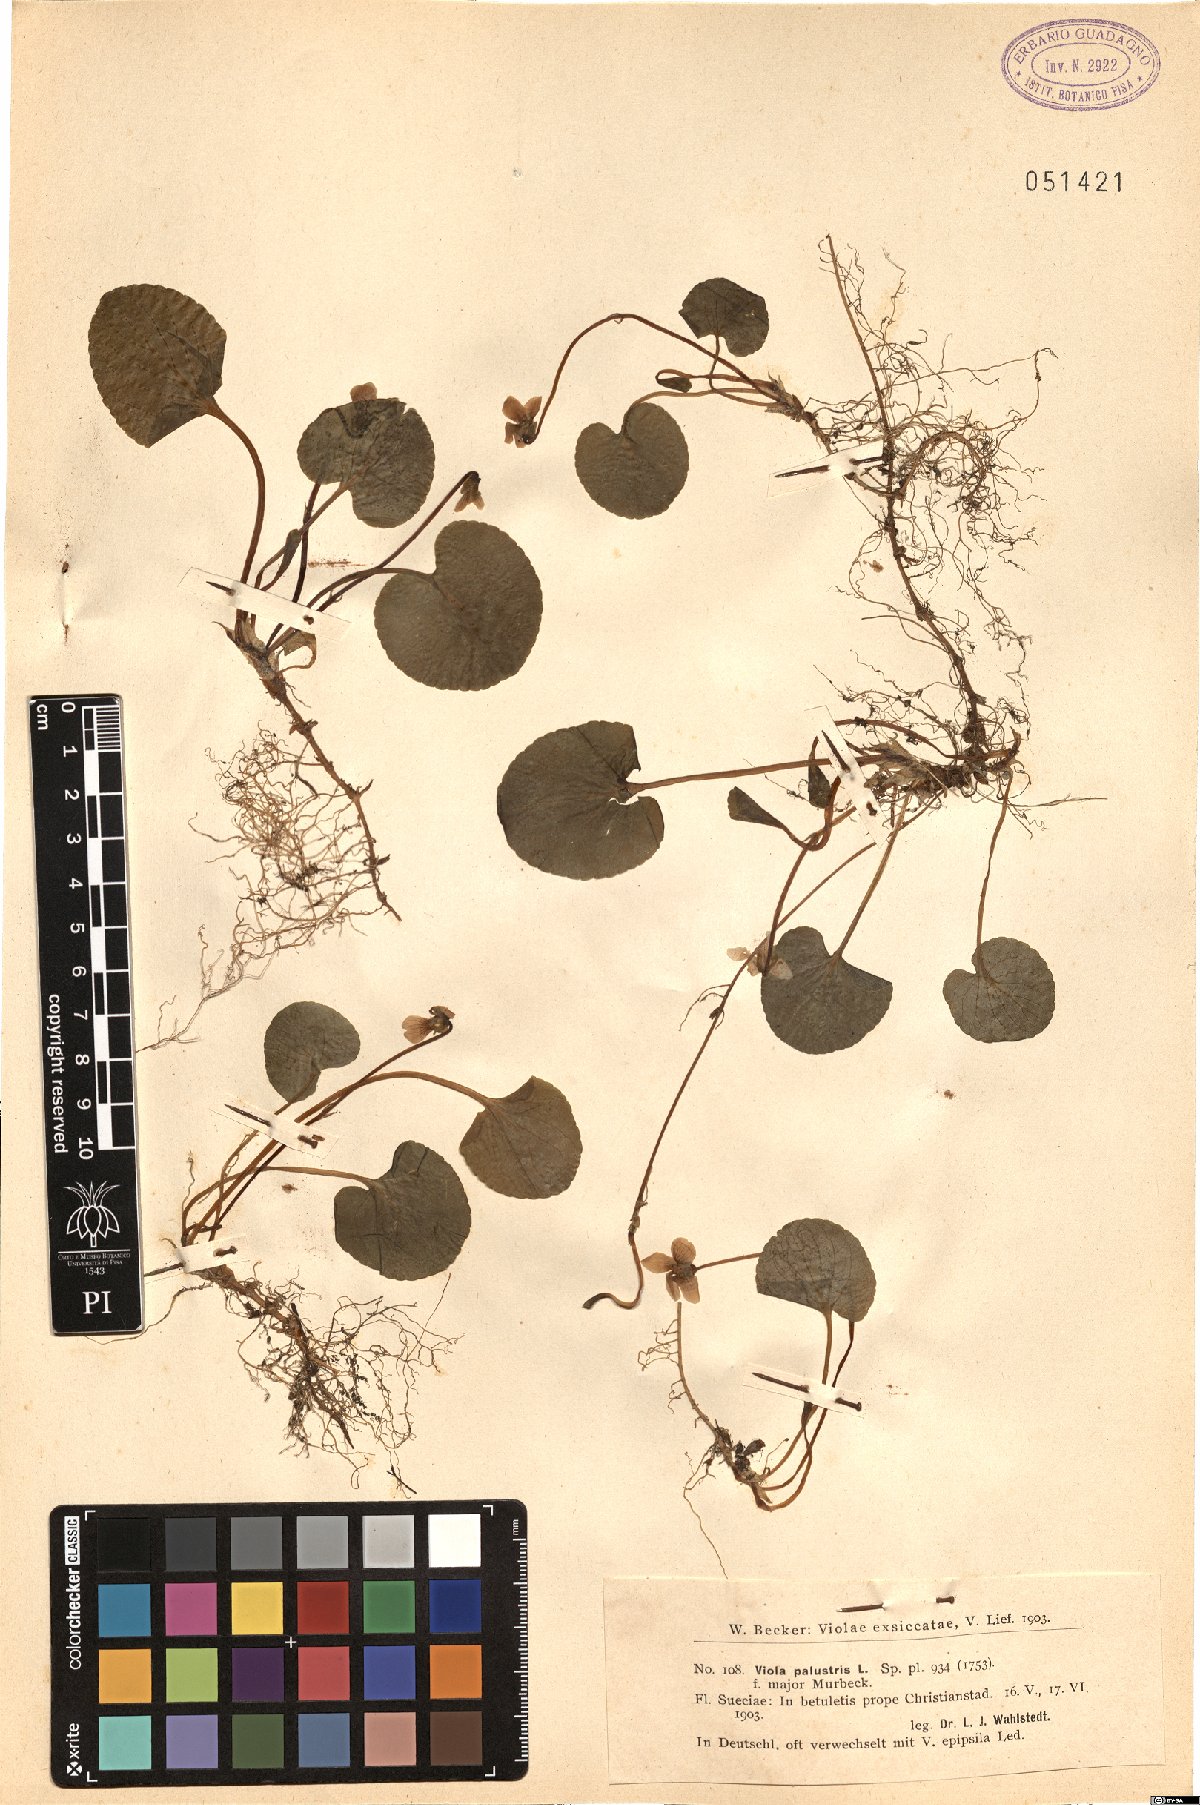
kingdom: Plantae
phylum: Tracheophyta
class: Magnoliopsida
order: Malpighiales
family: Violaceae
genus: Viola
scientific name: Viola palustris
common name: Marsh violet
